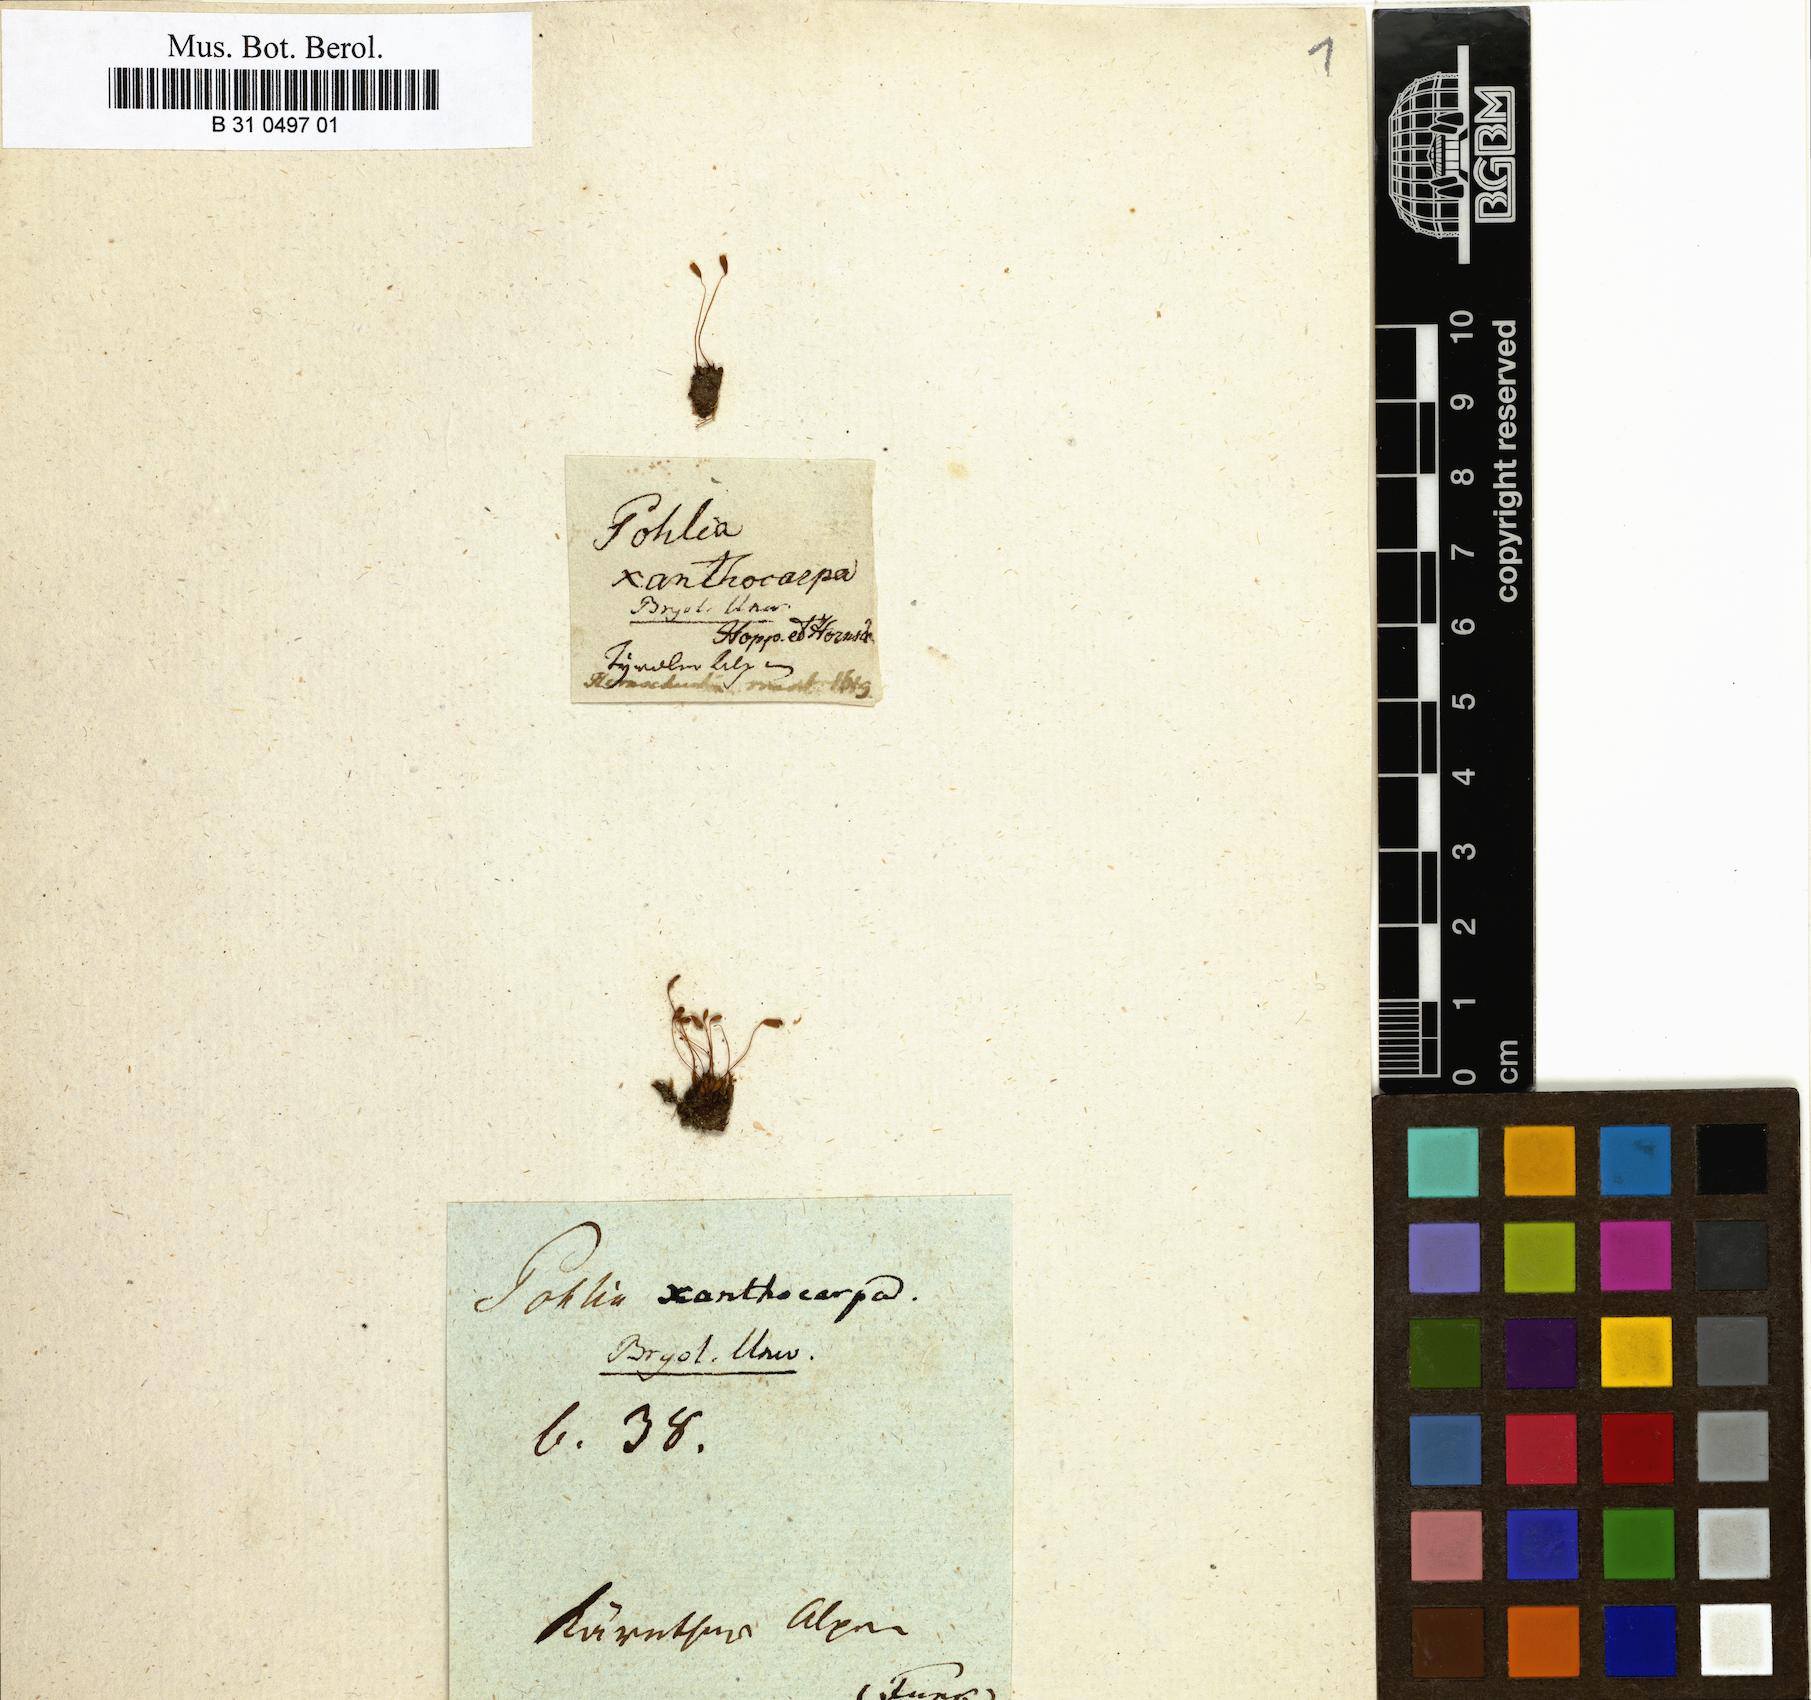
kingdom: Plantae
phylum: Bryophyta
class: Bryopsida
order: Bryales
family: Mniaceae
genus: Pohlia
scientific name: Pohlia elongata
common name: Long-fruited thread-moss
